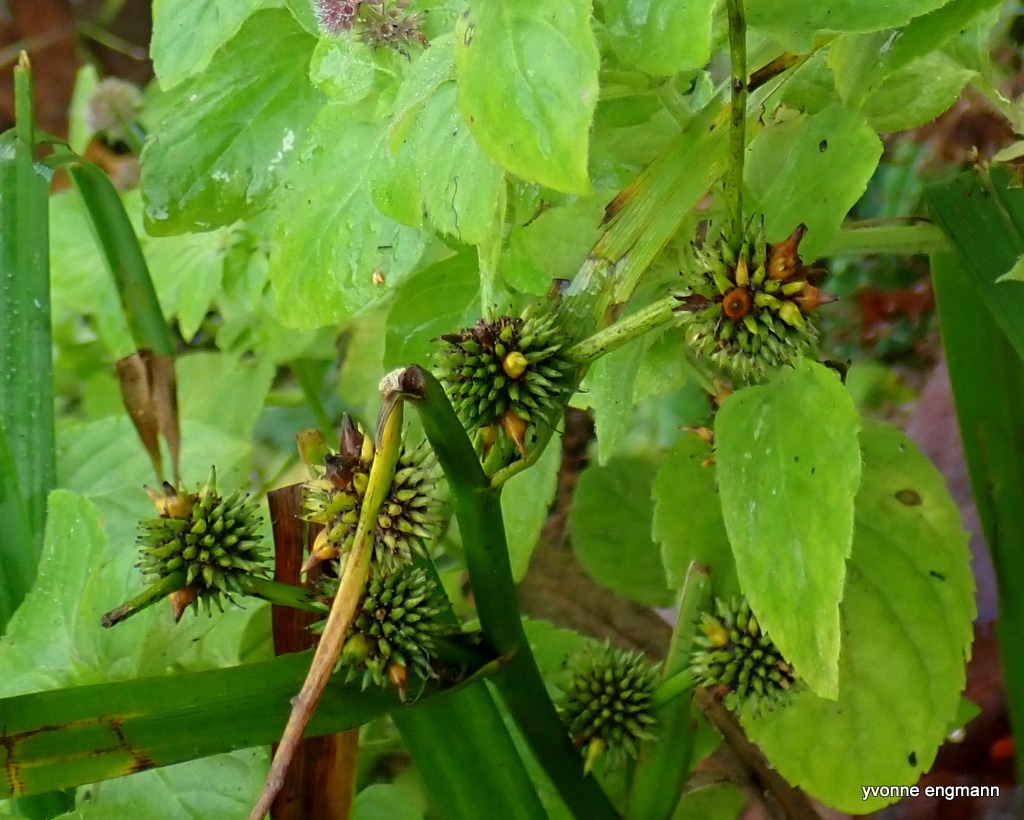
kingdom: Plantae
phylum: Tracheophyta
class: Liliopsida
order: Poales
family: Typhaceae
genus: Sparganium
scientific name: Sparganium erectum
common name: Småfrugtet pindsvineknop
